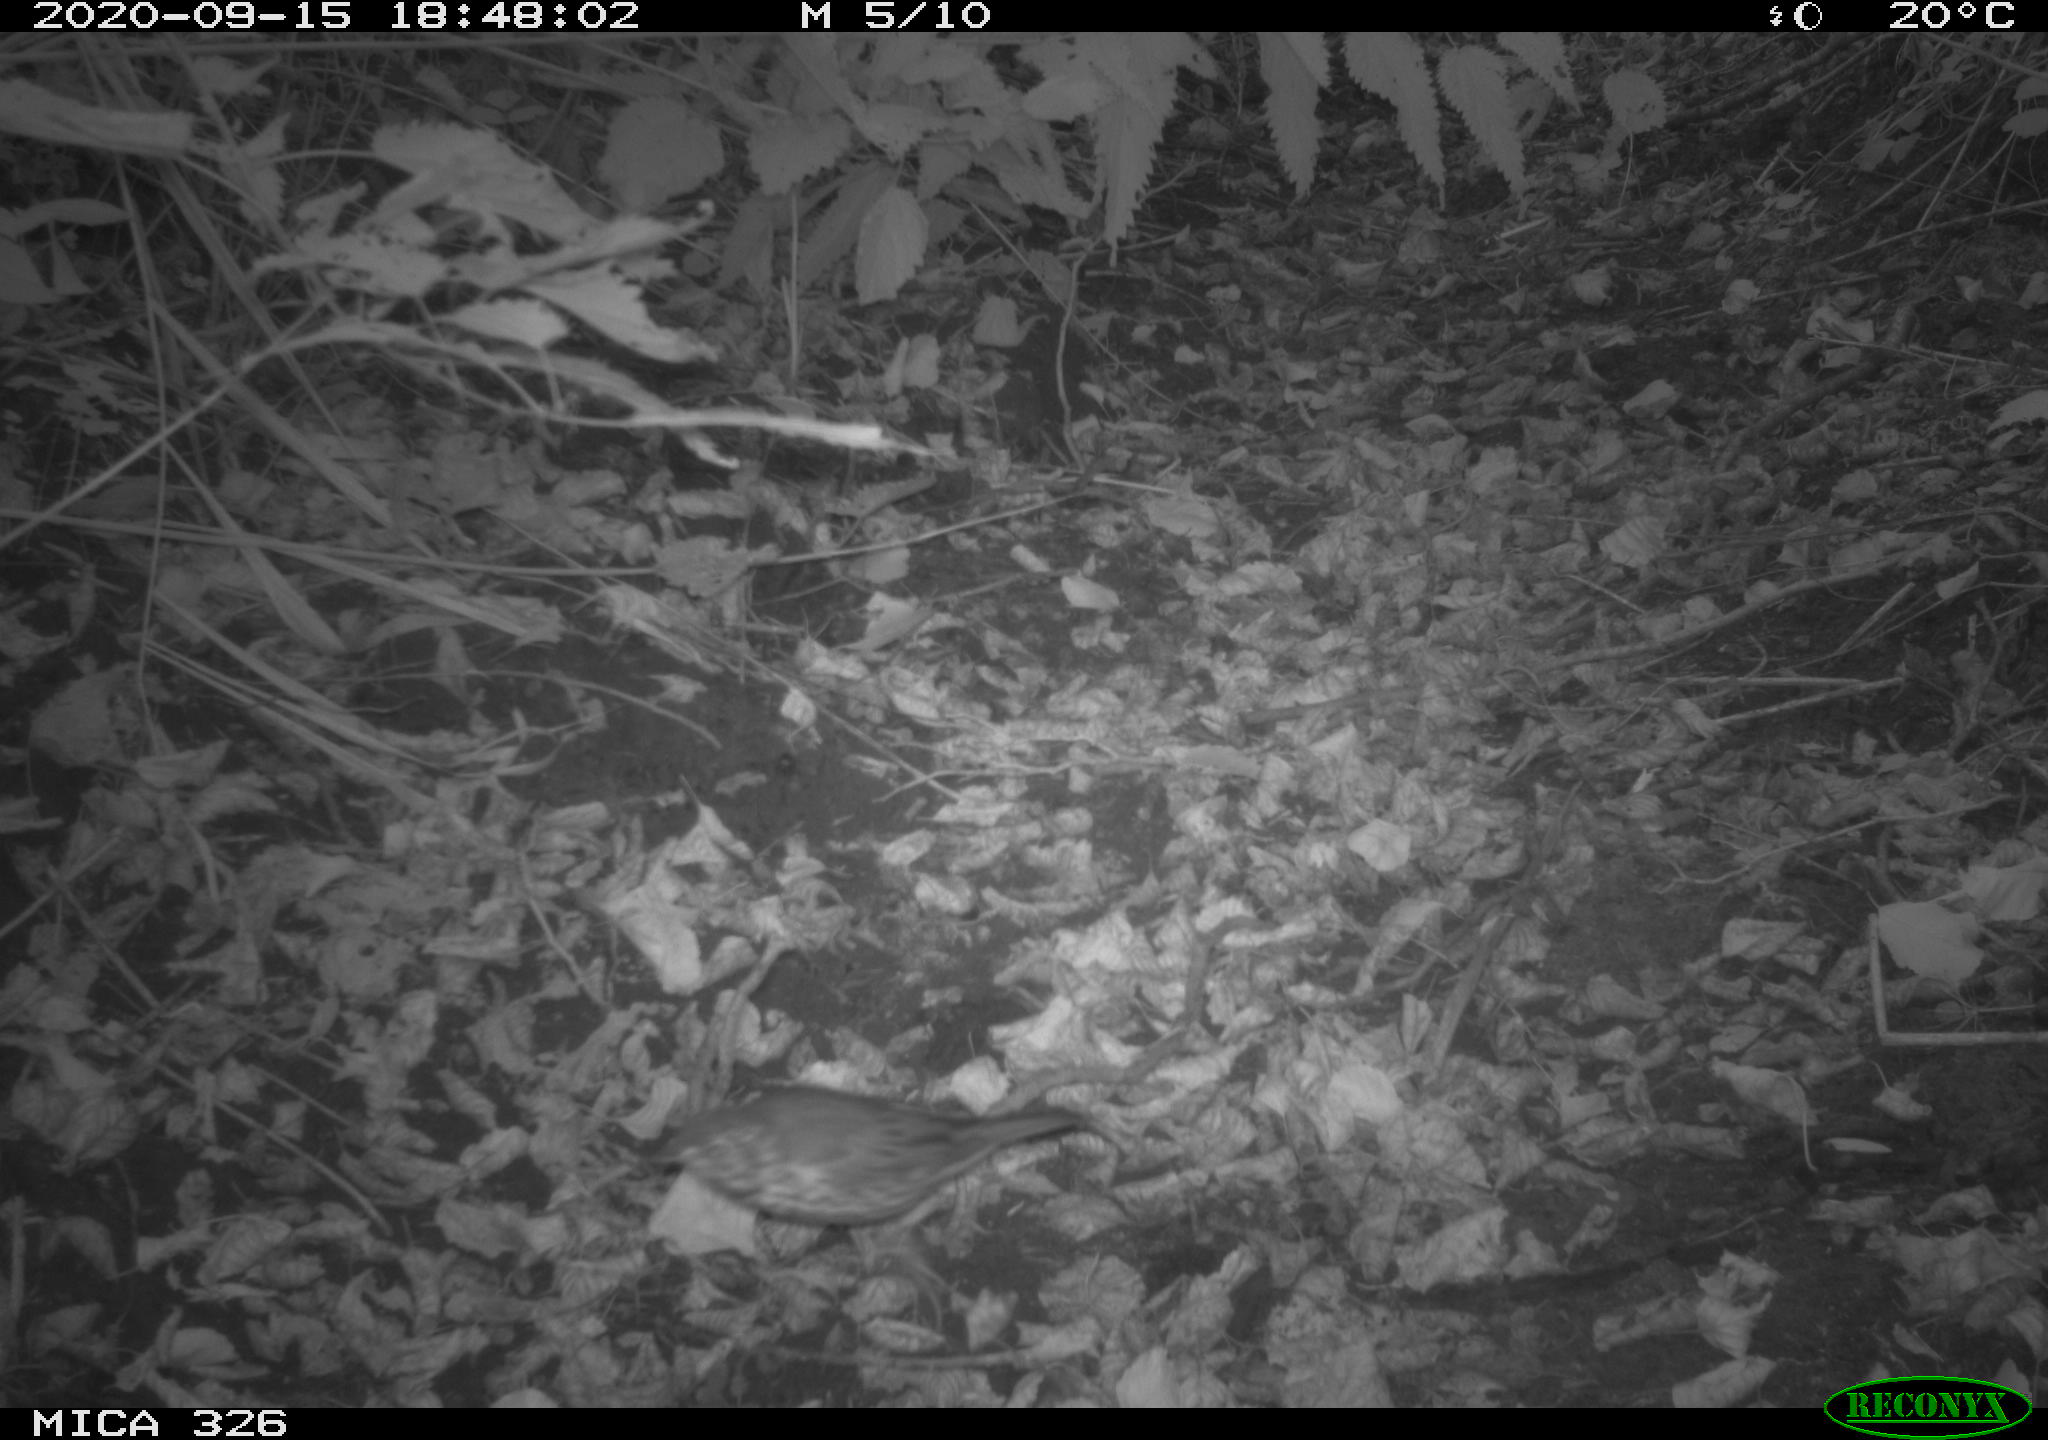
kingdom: Animalia
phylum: Chordata
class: Aves
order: Passeriformes
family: Turdidae
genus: Turdus
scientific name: Turdus philomelos
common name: Song thrush
